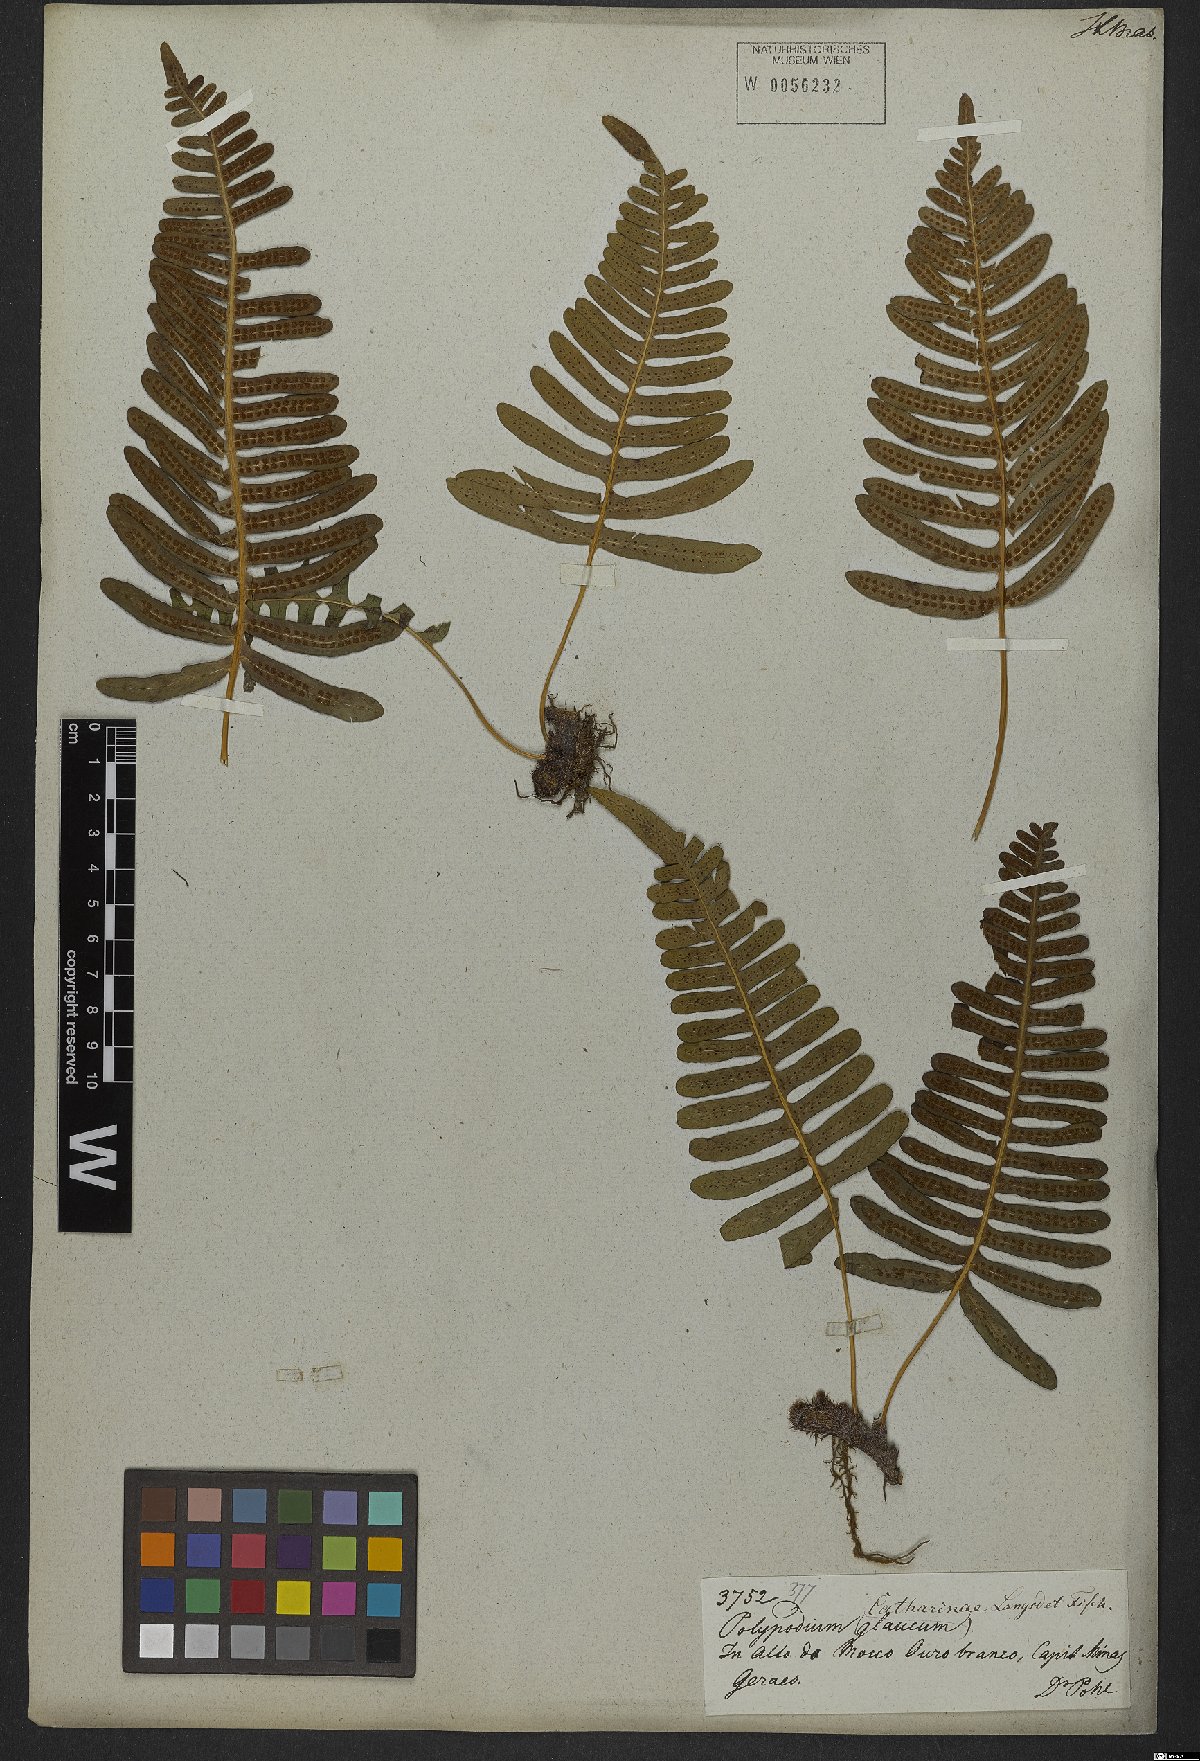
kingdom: Plantae
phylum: Tracheophyta
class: Polypodiopsida
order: Polypodiales
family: Polypodiaceae
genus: Serpocaulon
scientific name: Serpocaulon catharinae
